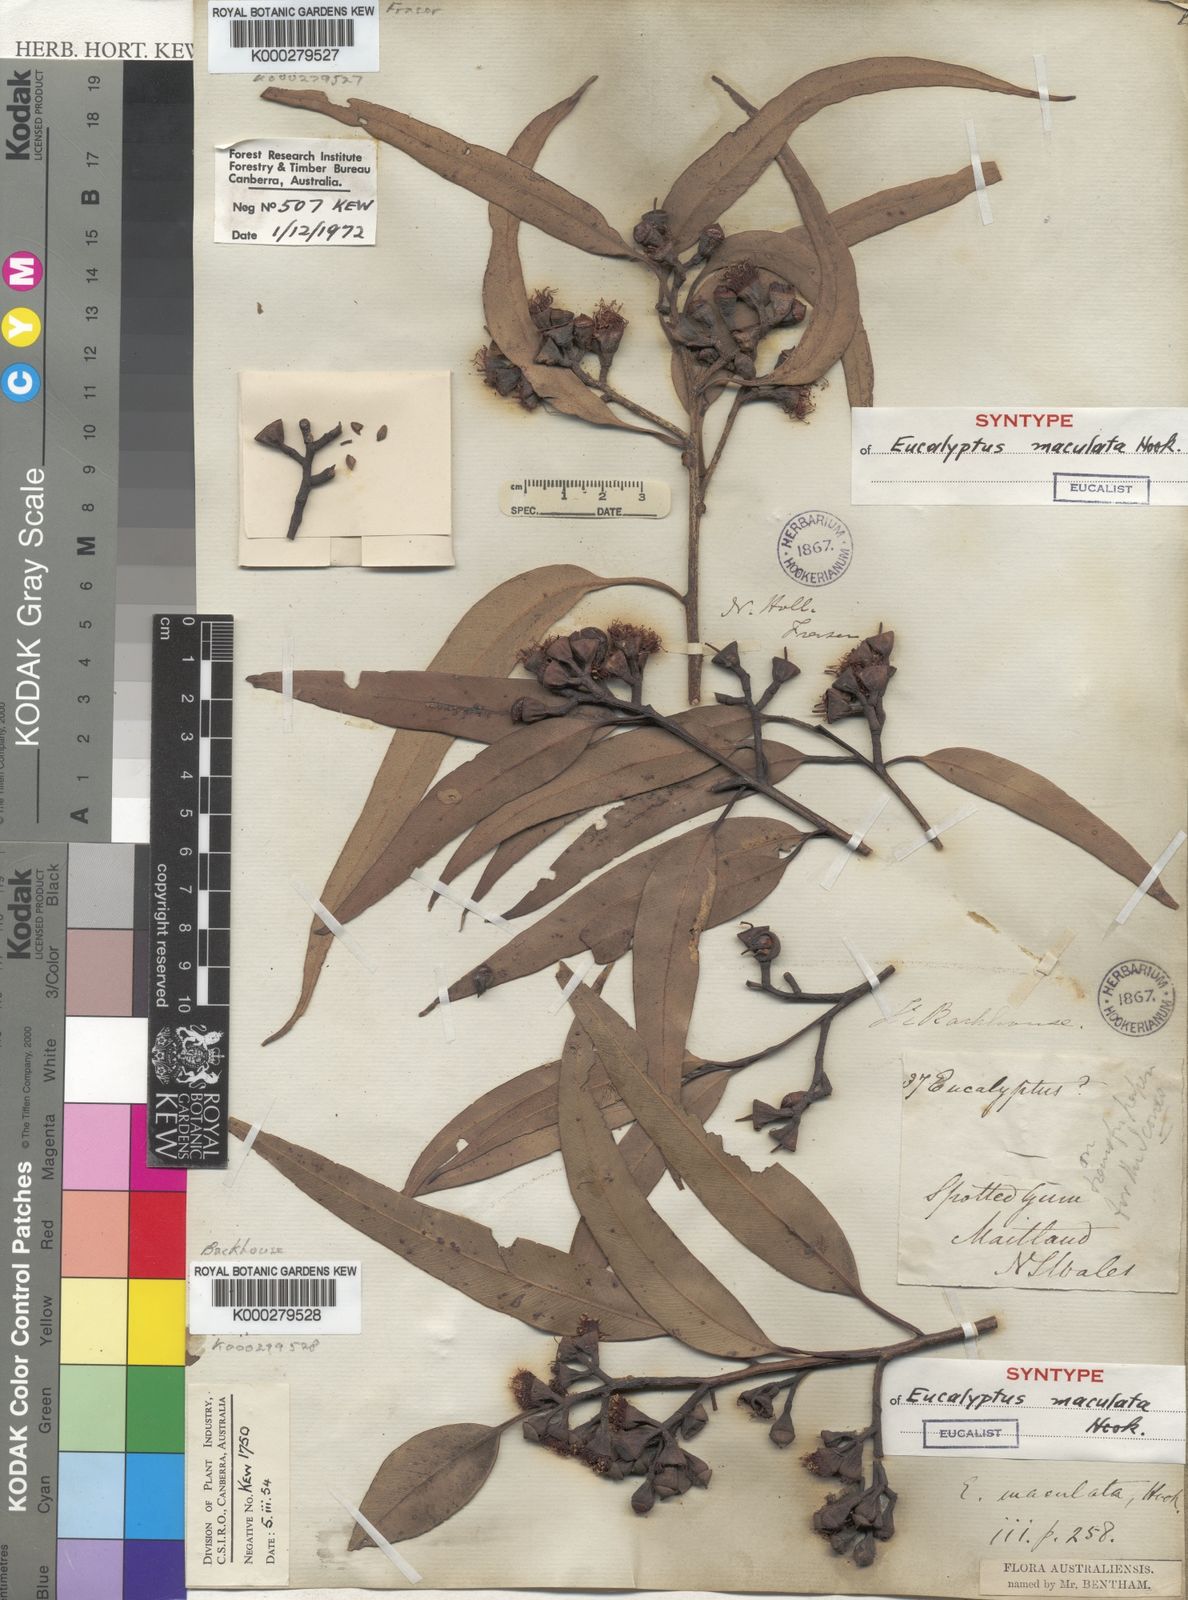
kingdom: Plantae
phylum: Tracheophyta
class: Magnoliopsida
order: Myrtales
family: Myrtaceae
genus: Corymbia
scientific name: Corymbia maculata
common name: Spotted gum
